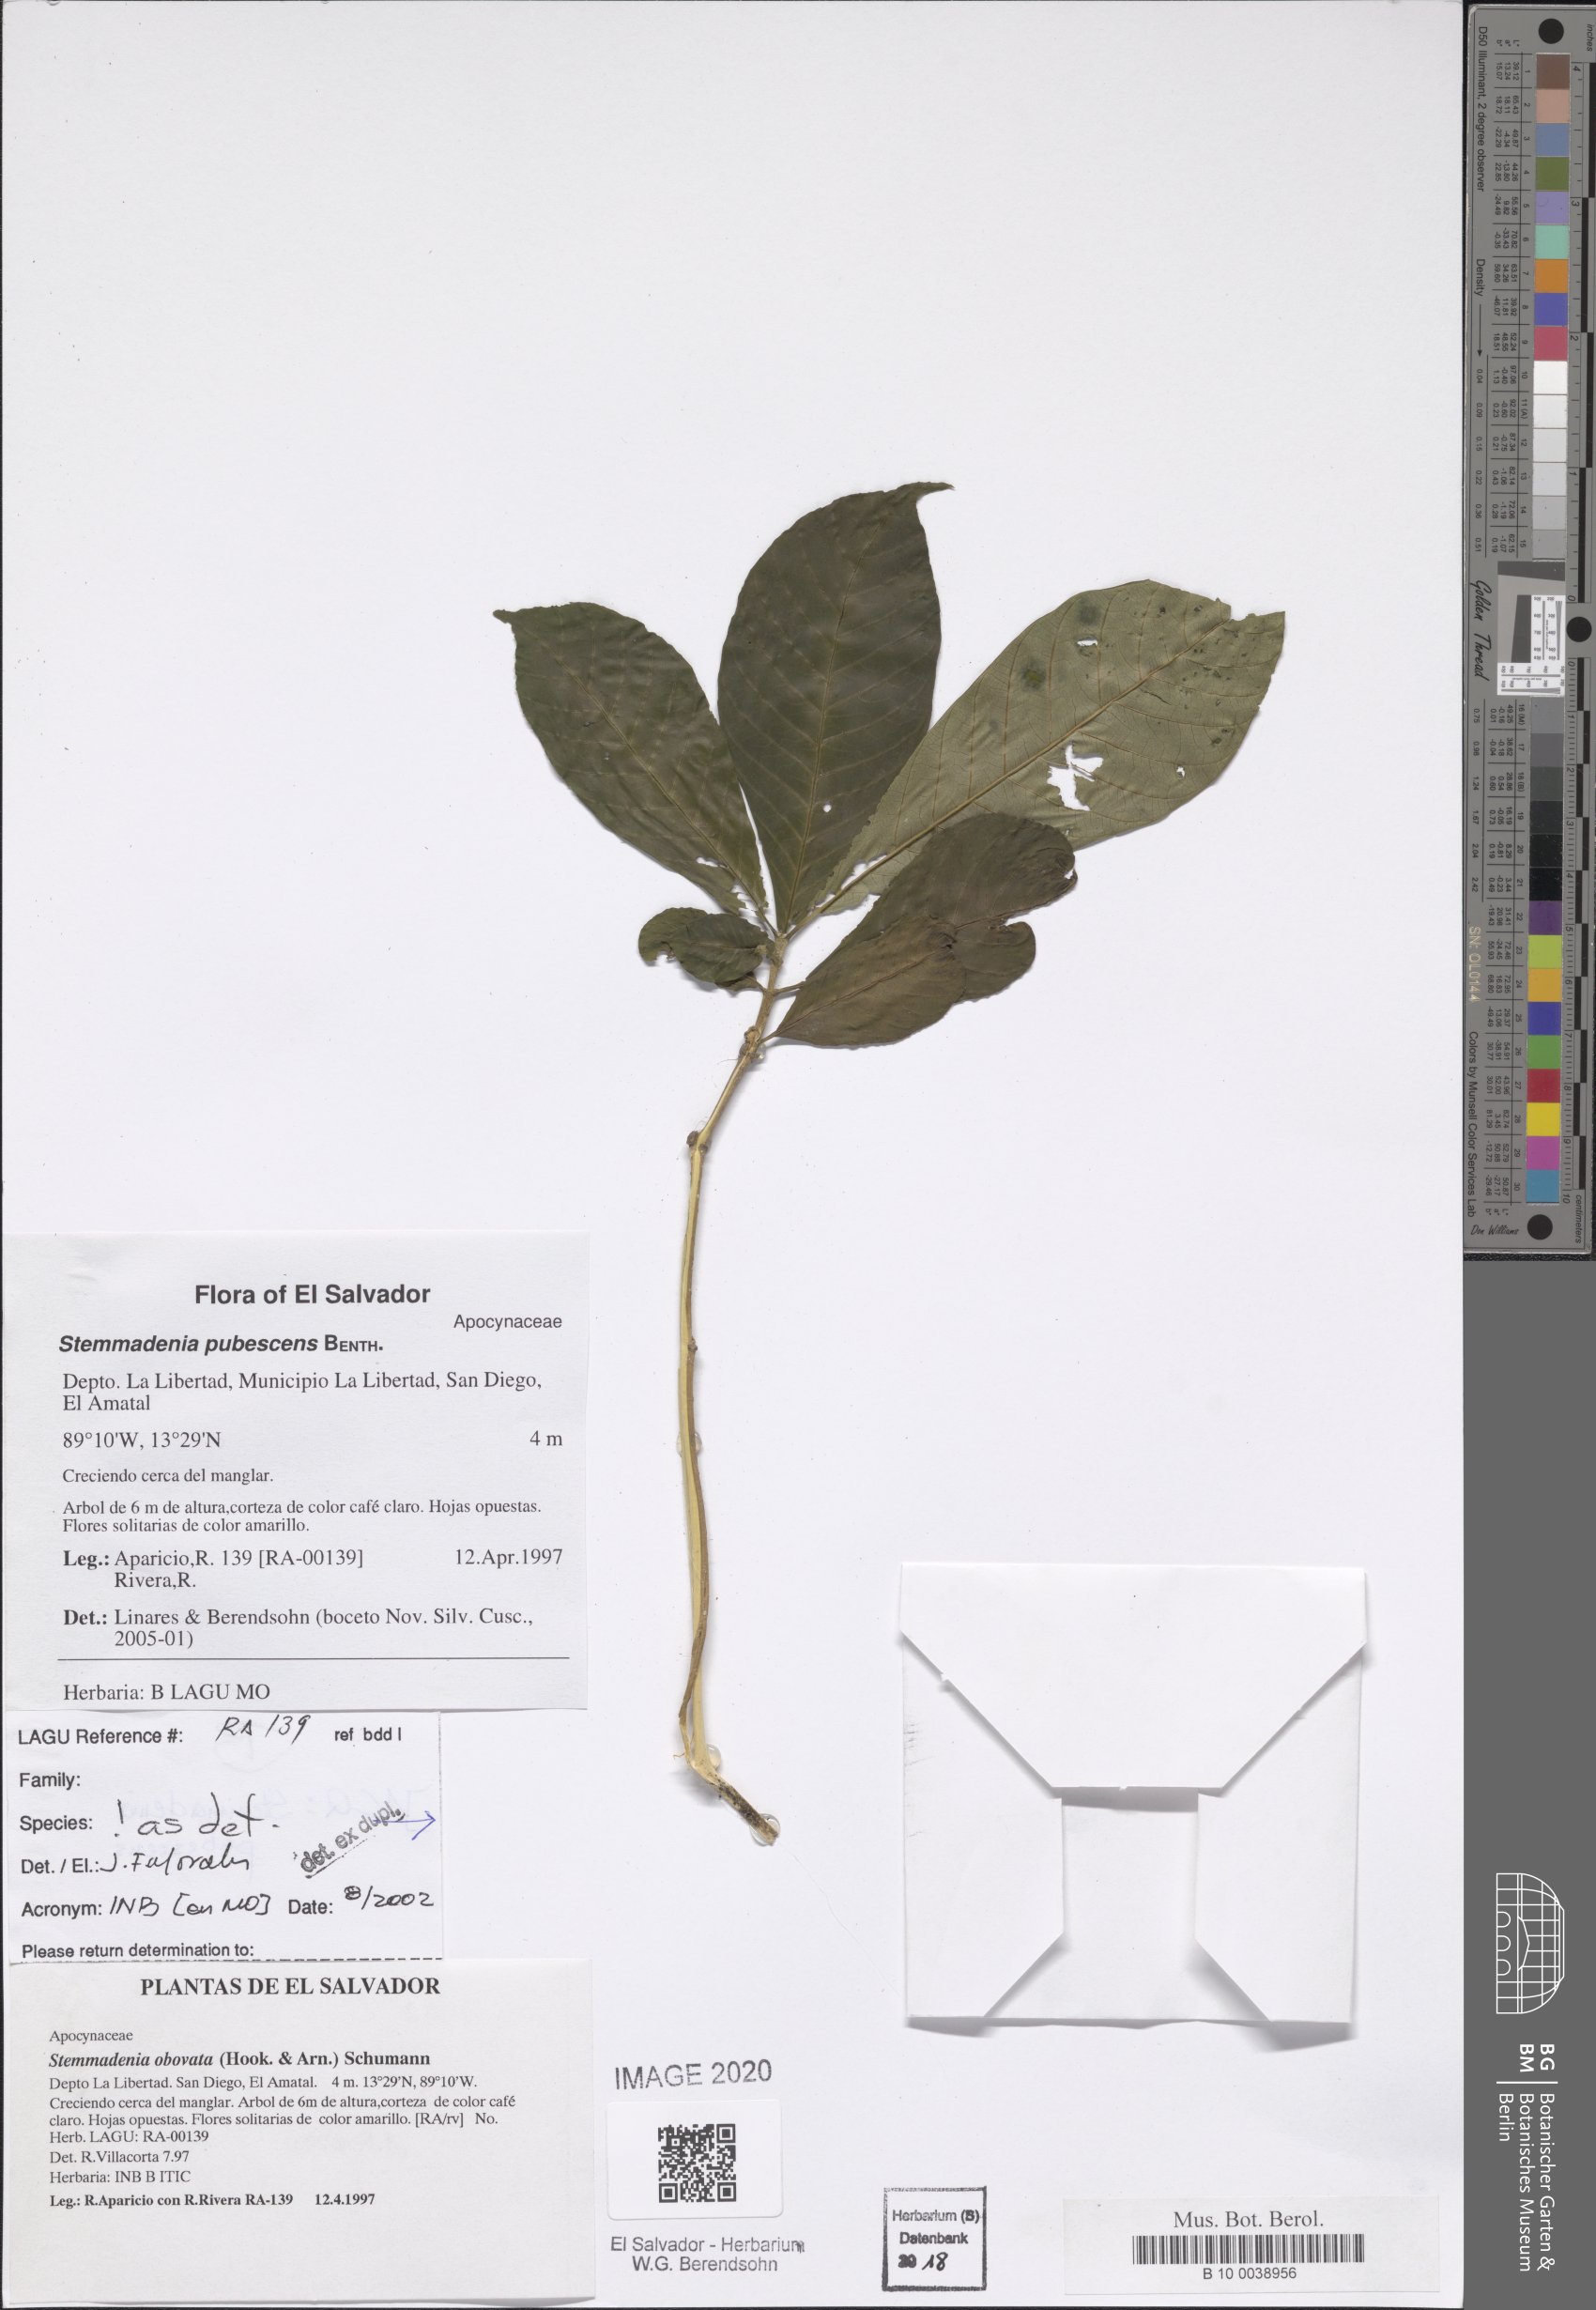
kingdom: Plantae
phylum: Tracheophyta
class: Magnoliopsida
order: Gentianales
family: Apocynaceae
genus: Tabernaemontana
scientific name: Tabernaemontana glabra
